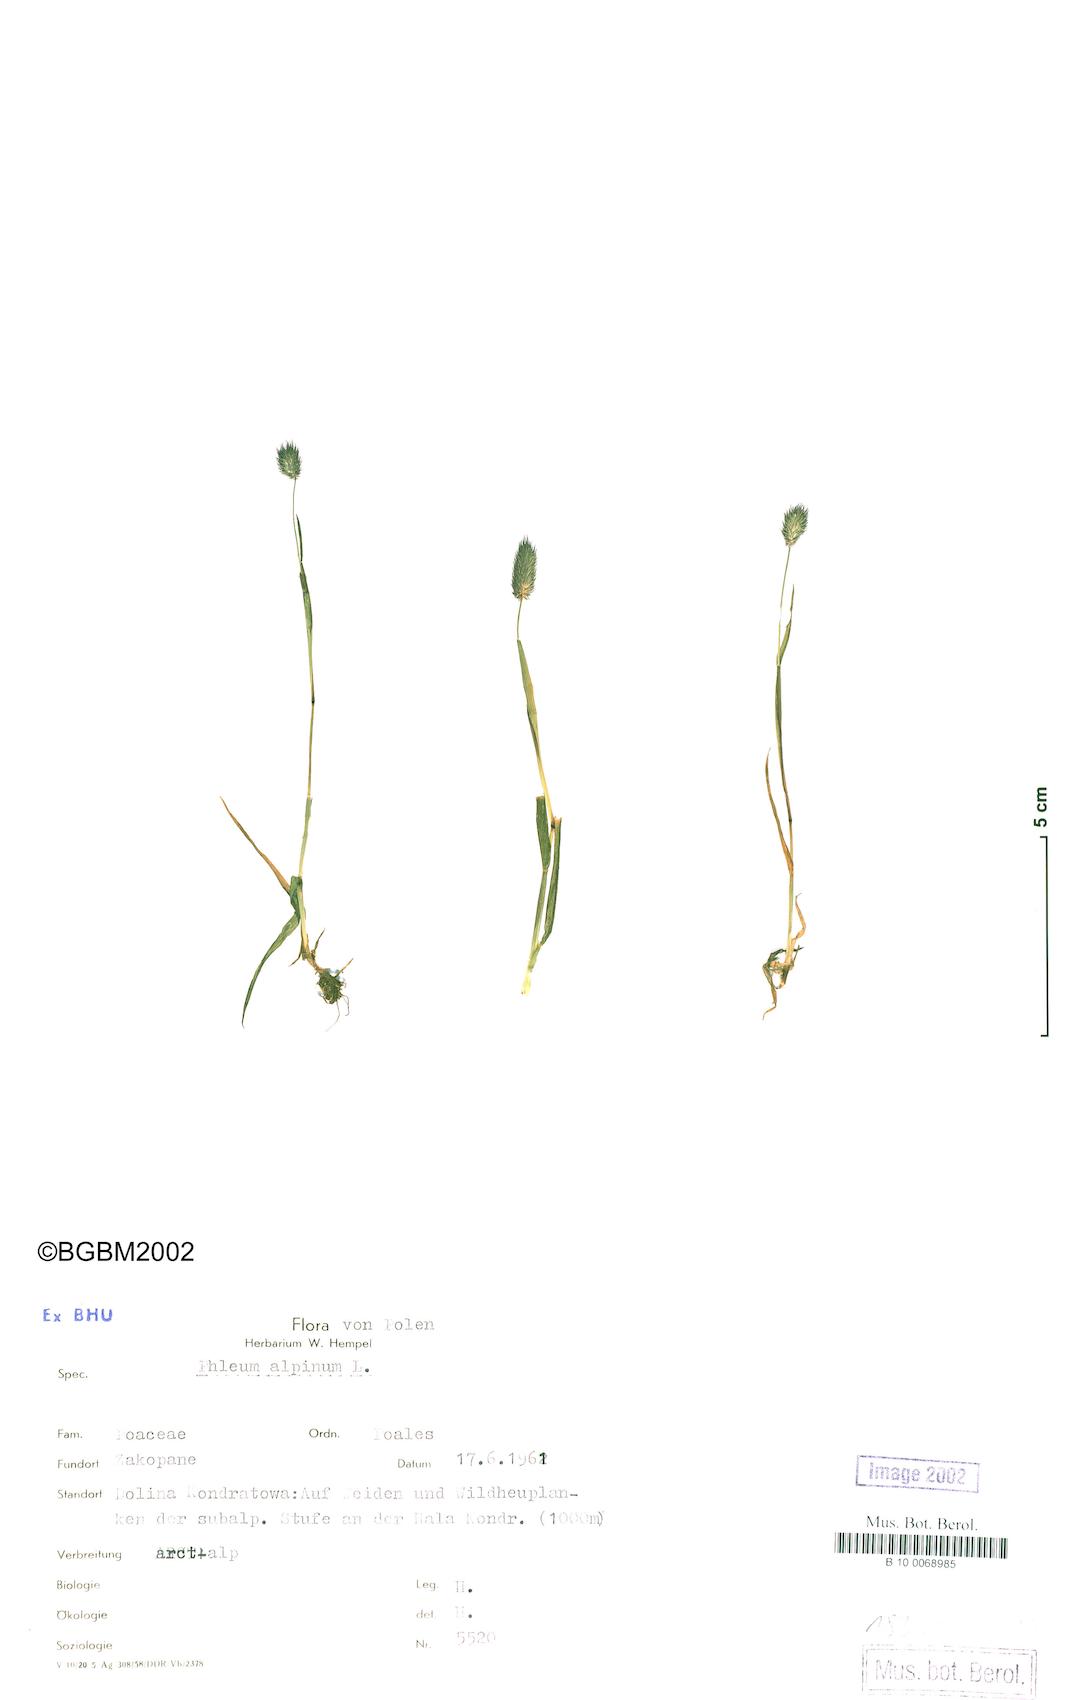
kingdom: Plantae
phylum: Tracheophyta
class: Liliopsida
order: Poales
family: Poaceae
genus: Phleum
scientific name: Phleum alpinum
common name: Alpine cat's-tail
